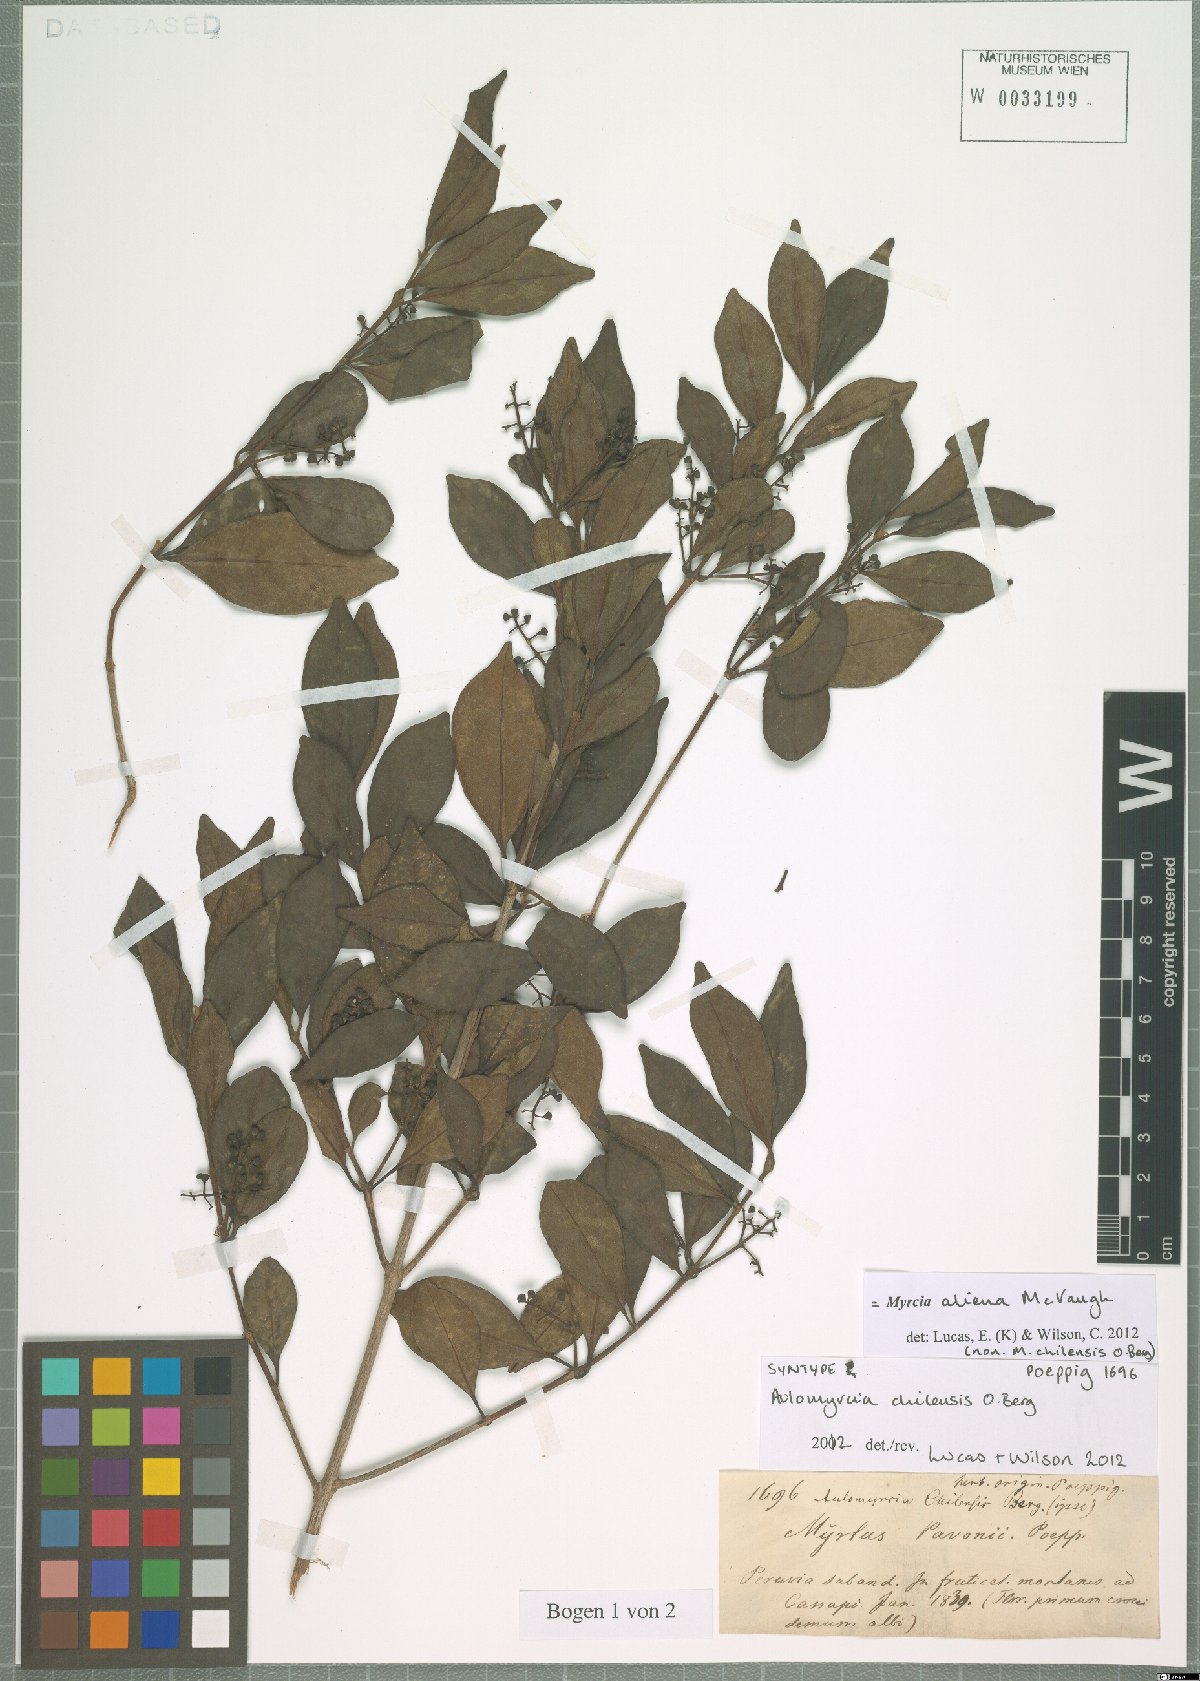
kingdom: Plantae
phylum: Tracheophyta
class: Magnoliopsida
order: Myrtales
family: Myrtaceae
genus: Myrcia
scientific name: Myrcia aliena
